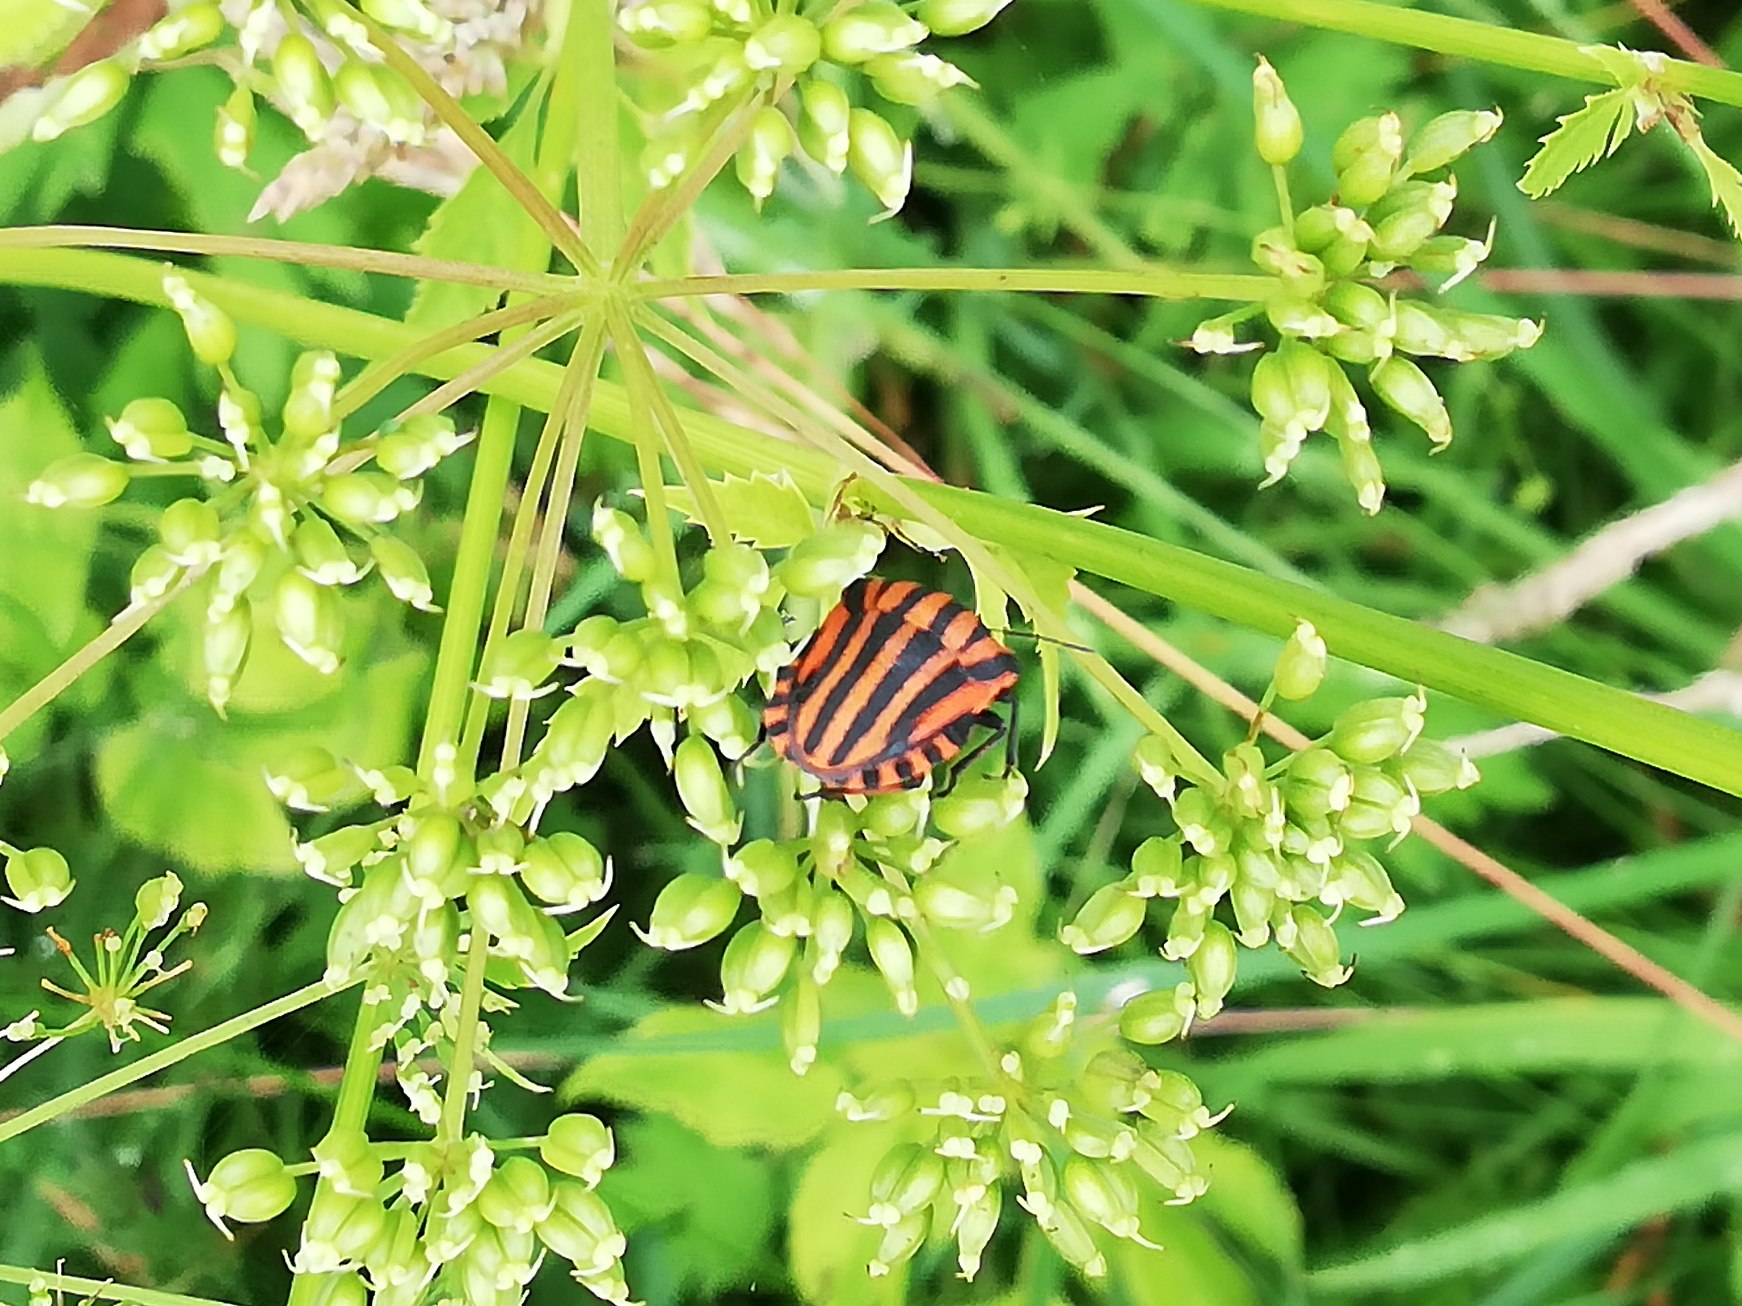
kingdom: Animalia
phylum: Arthropoda
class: Insecta
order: Hemiptera
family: Pentatomidae
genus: Graphosoma
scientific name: Graphosoma italicum
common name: Stribetæge
